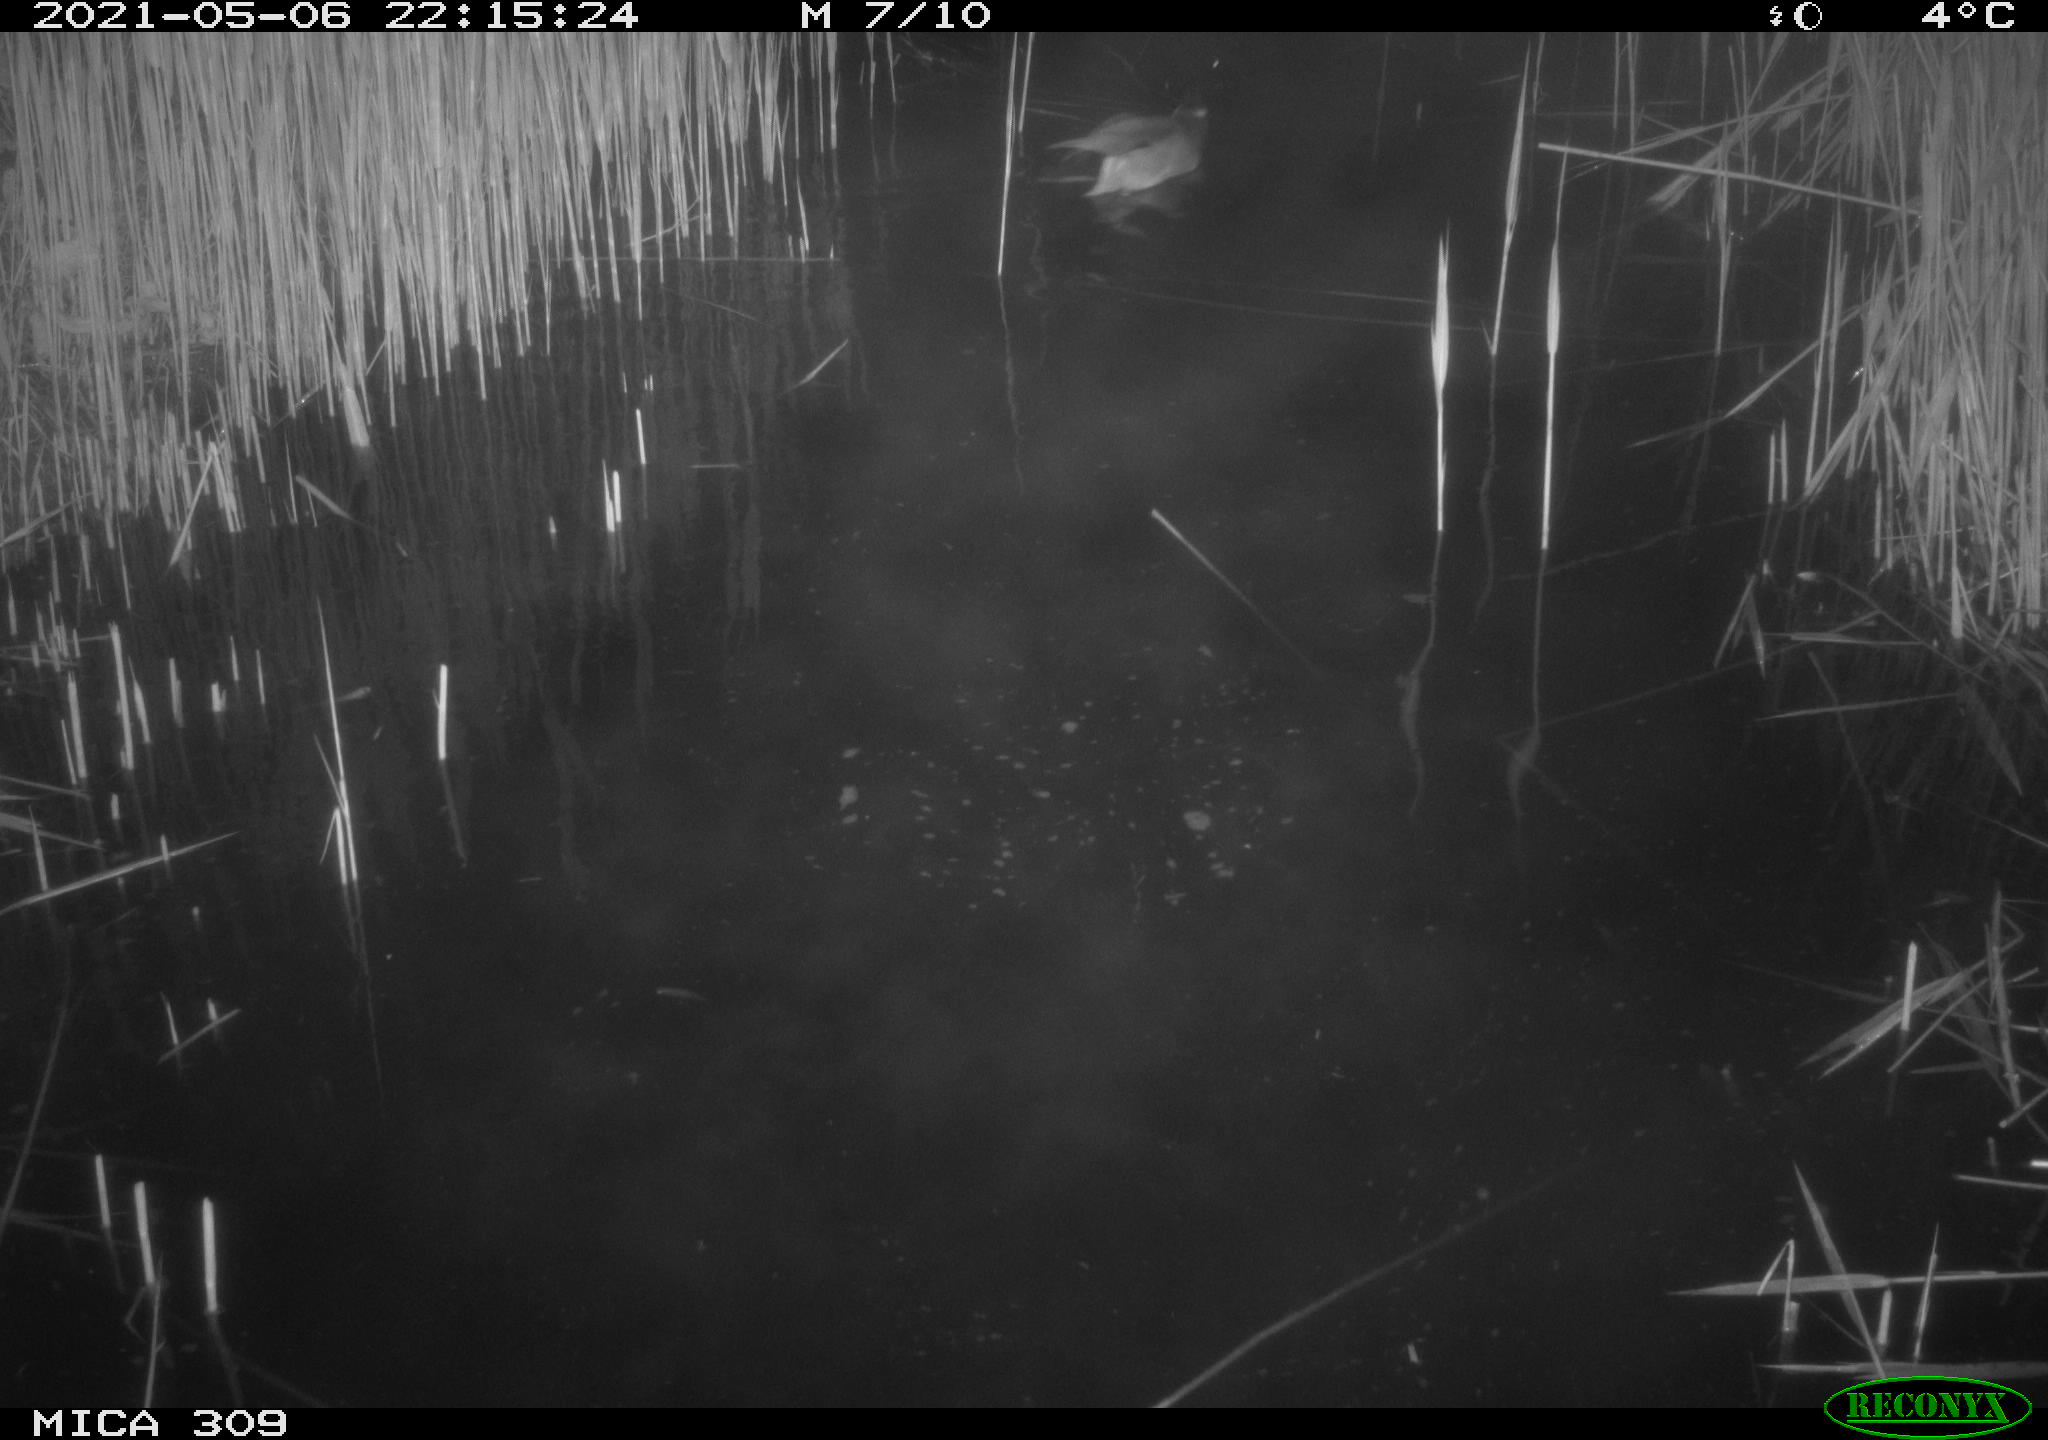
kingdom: Animalia
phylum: Chordata
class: Aves
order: Anseriformes
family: Anatidae
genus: Anas
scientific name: Anas platyrhynchos
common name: Mallard
